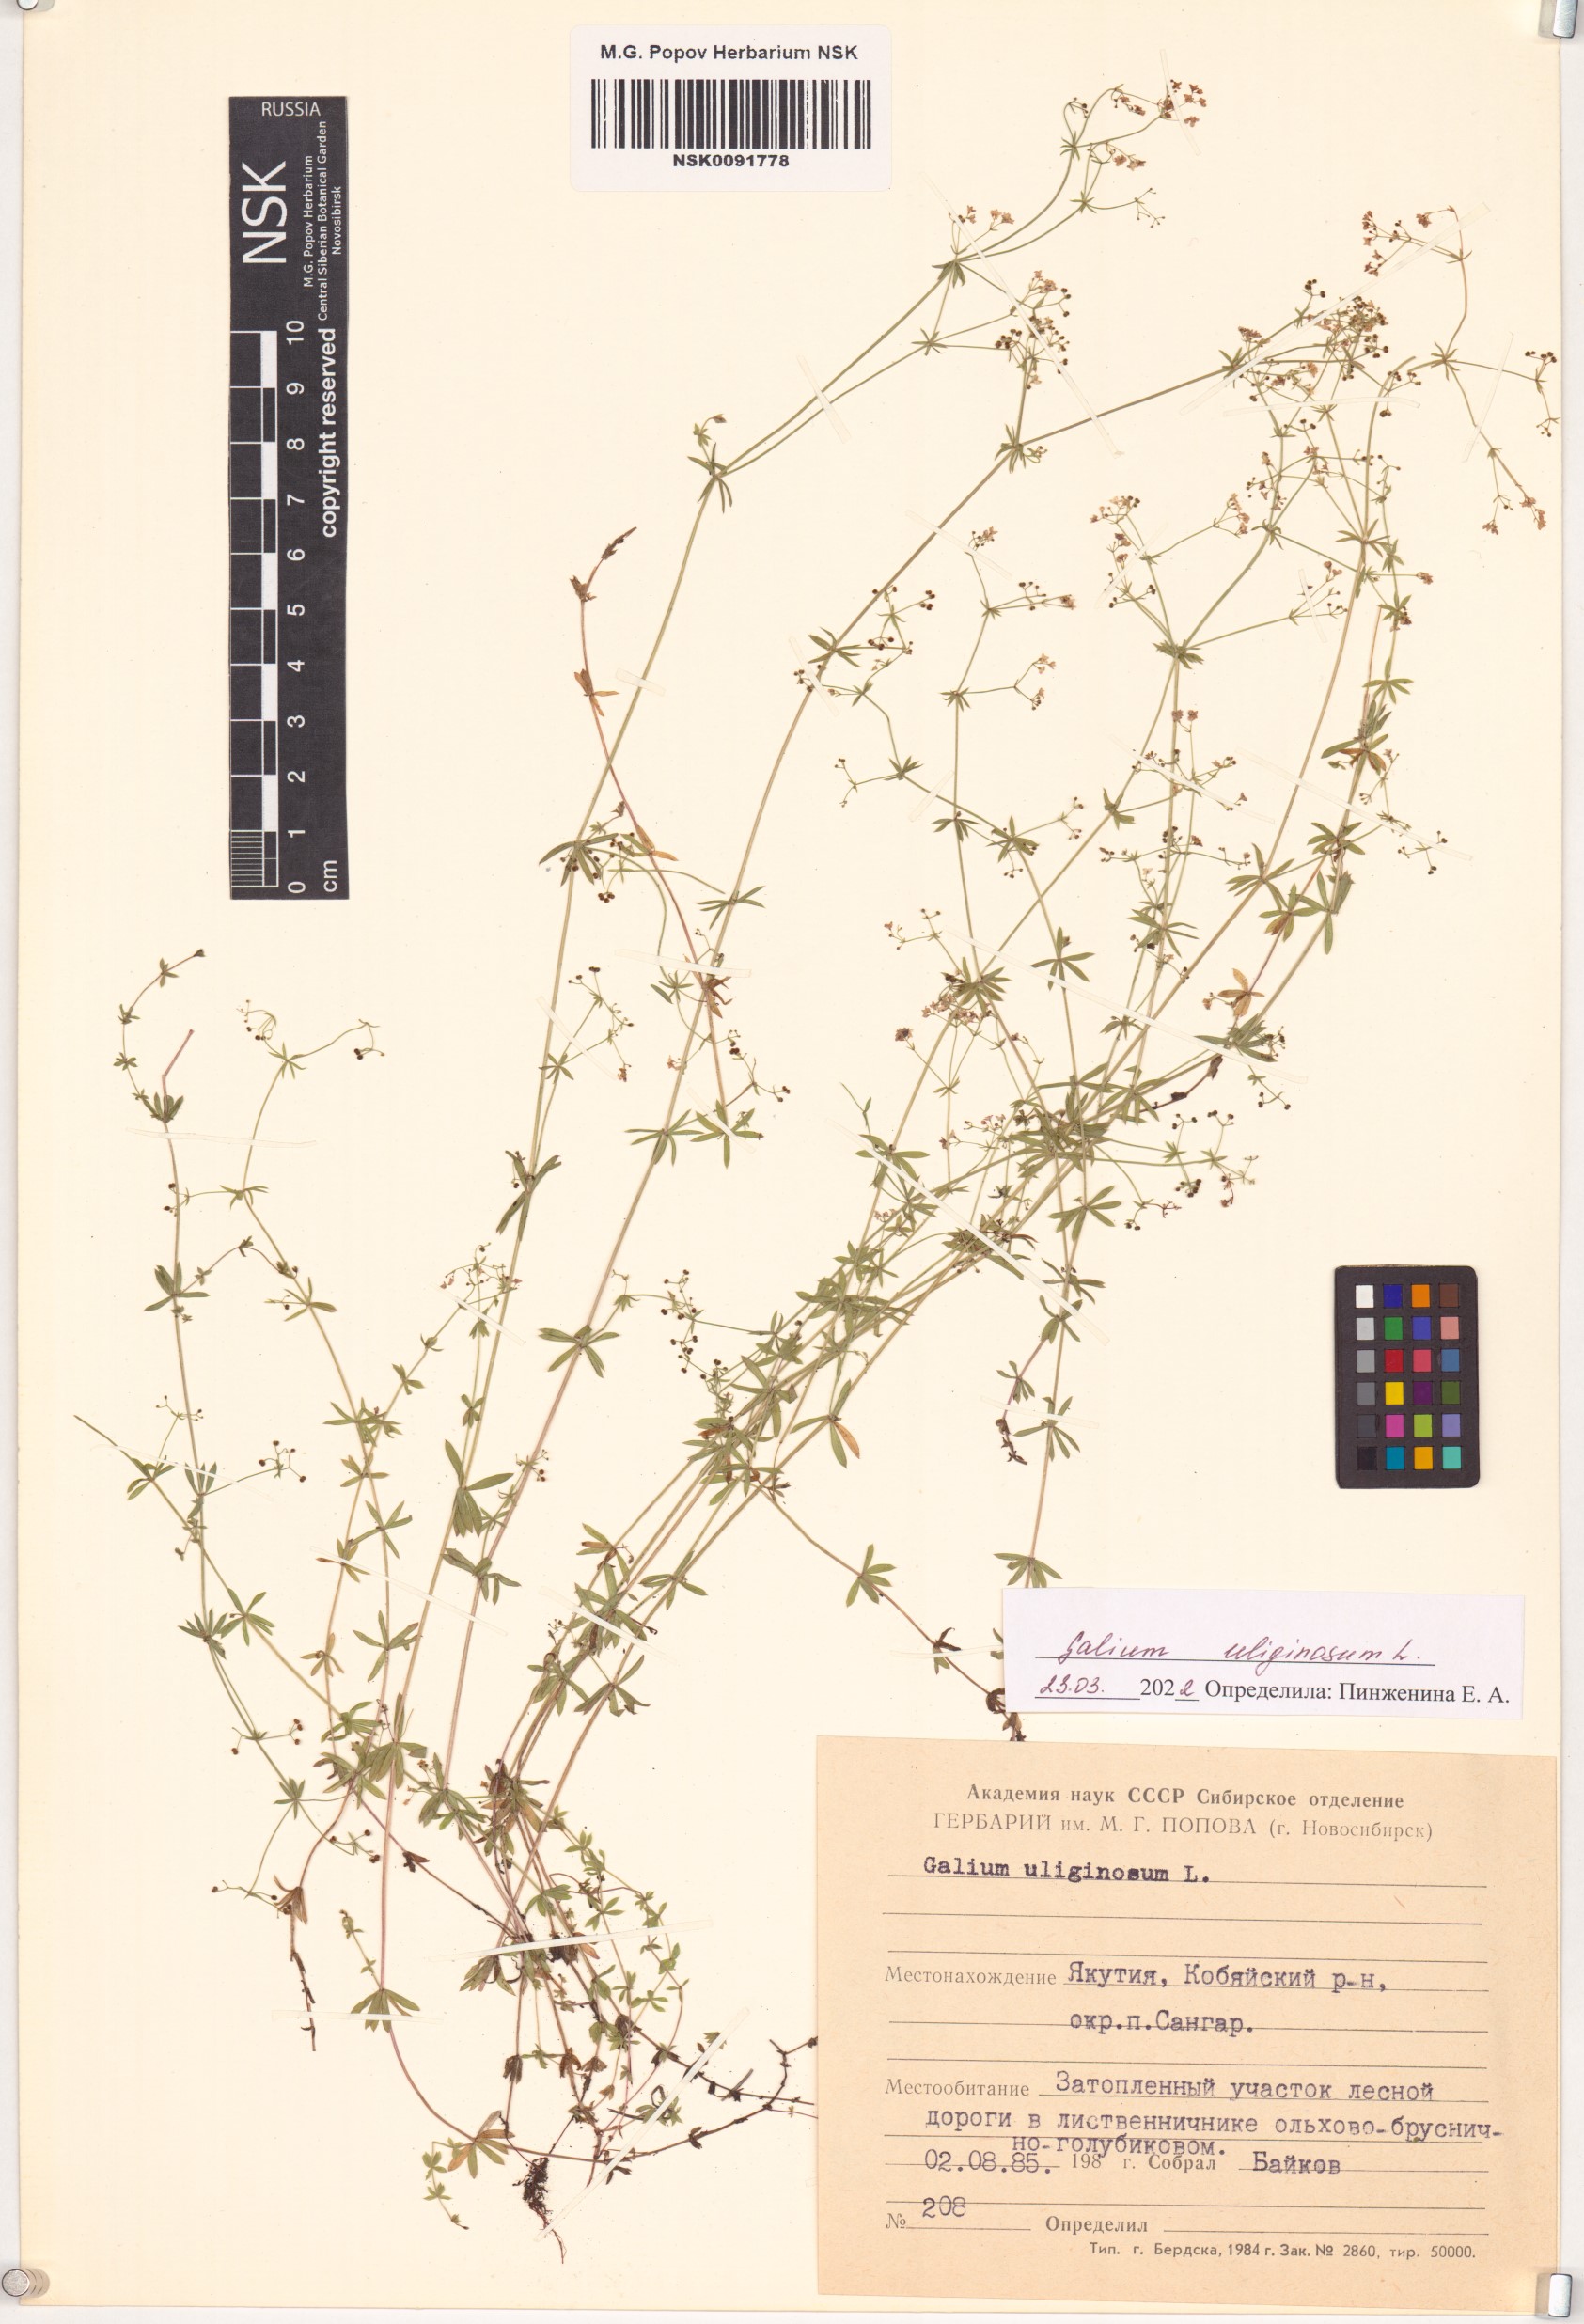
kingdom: Plantae
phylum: Tracheophyta
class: Magnoliopsida
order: Gentianales
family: Rubiaceae
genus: Galium
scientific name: Galium uliginosum
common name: Fen bedstraw
